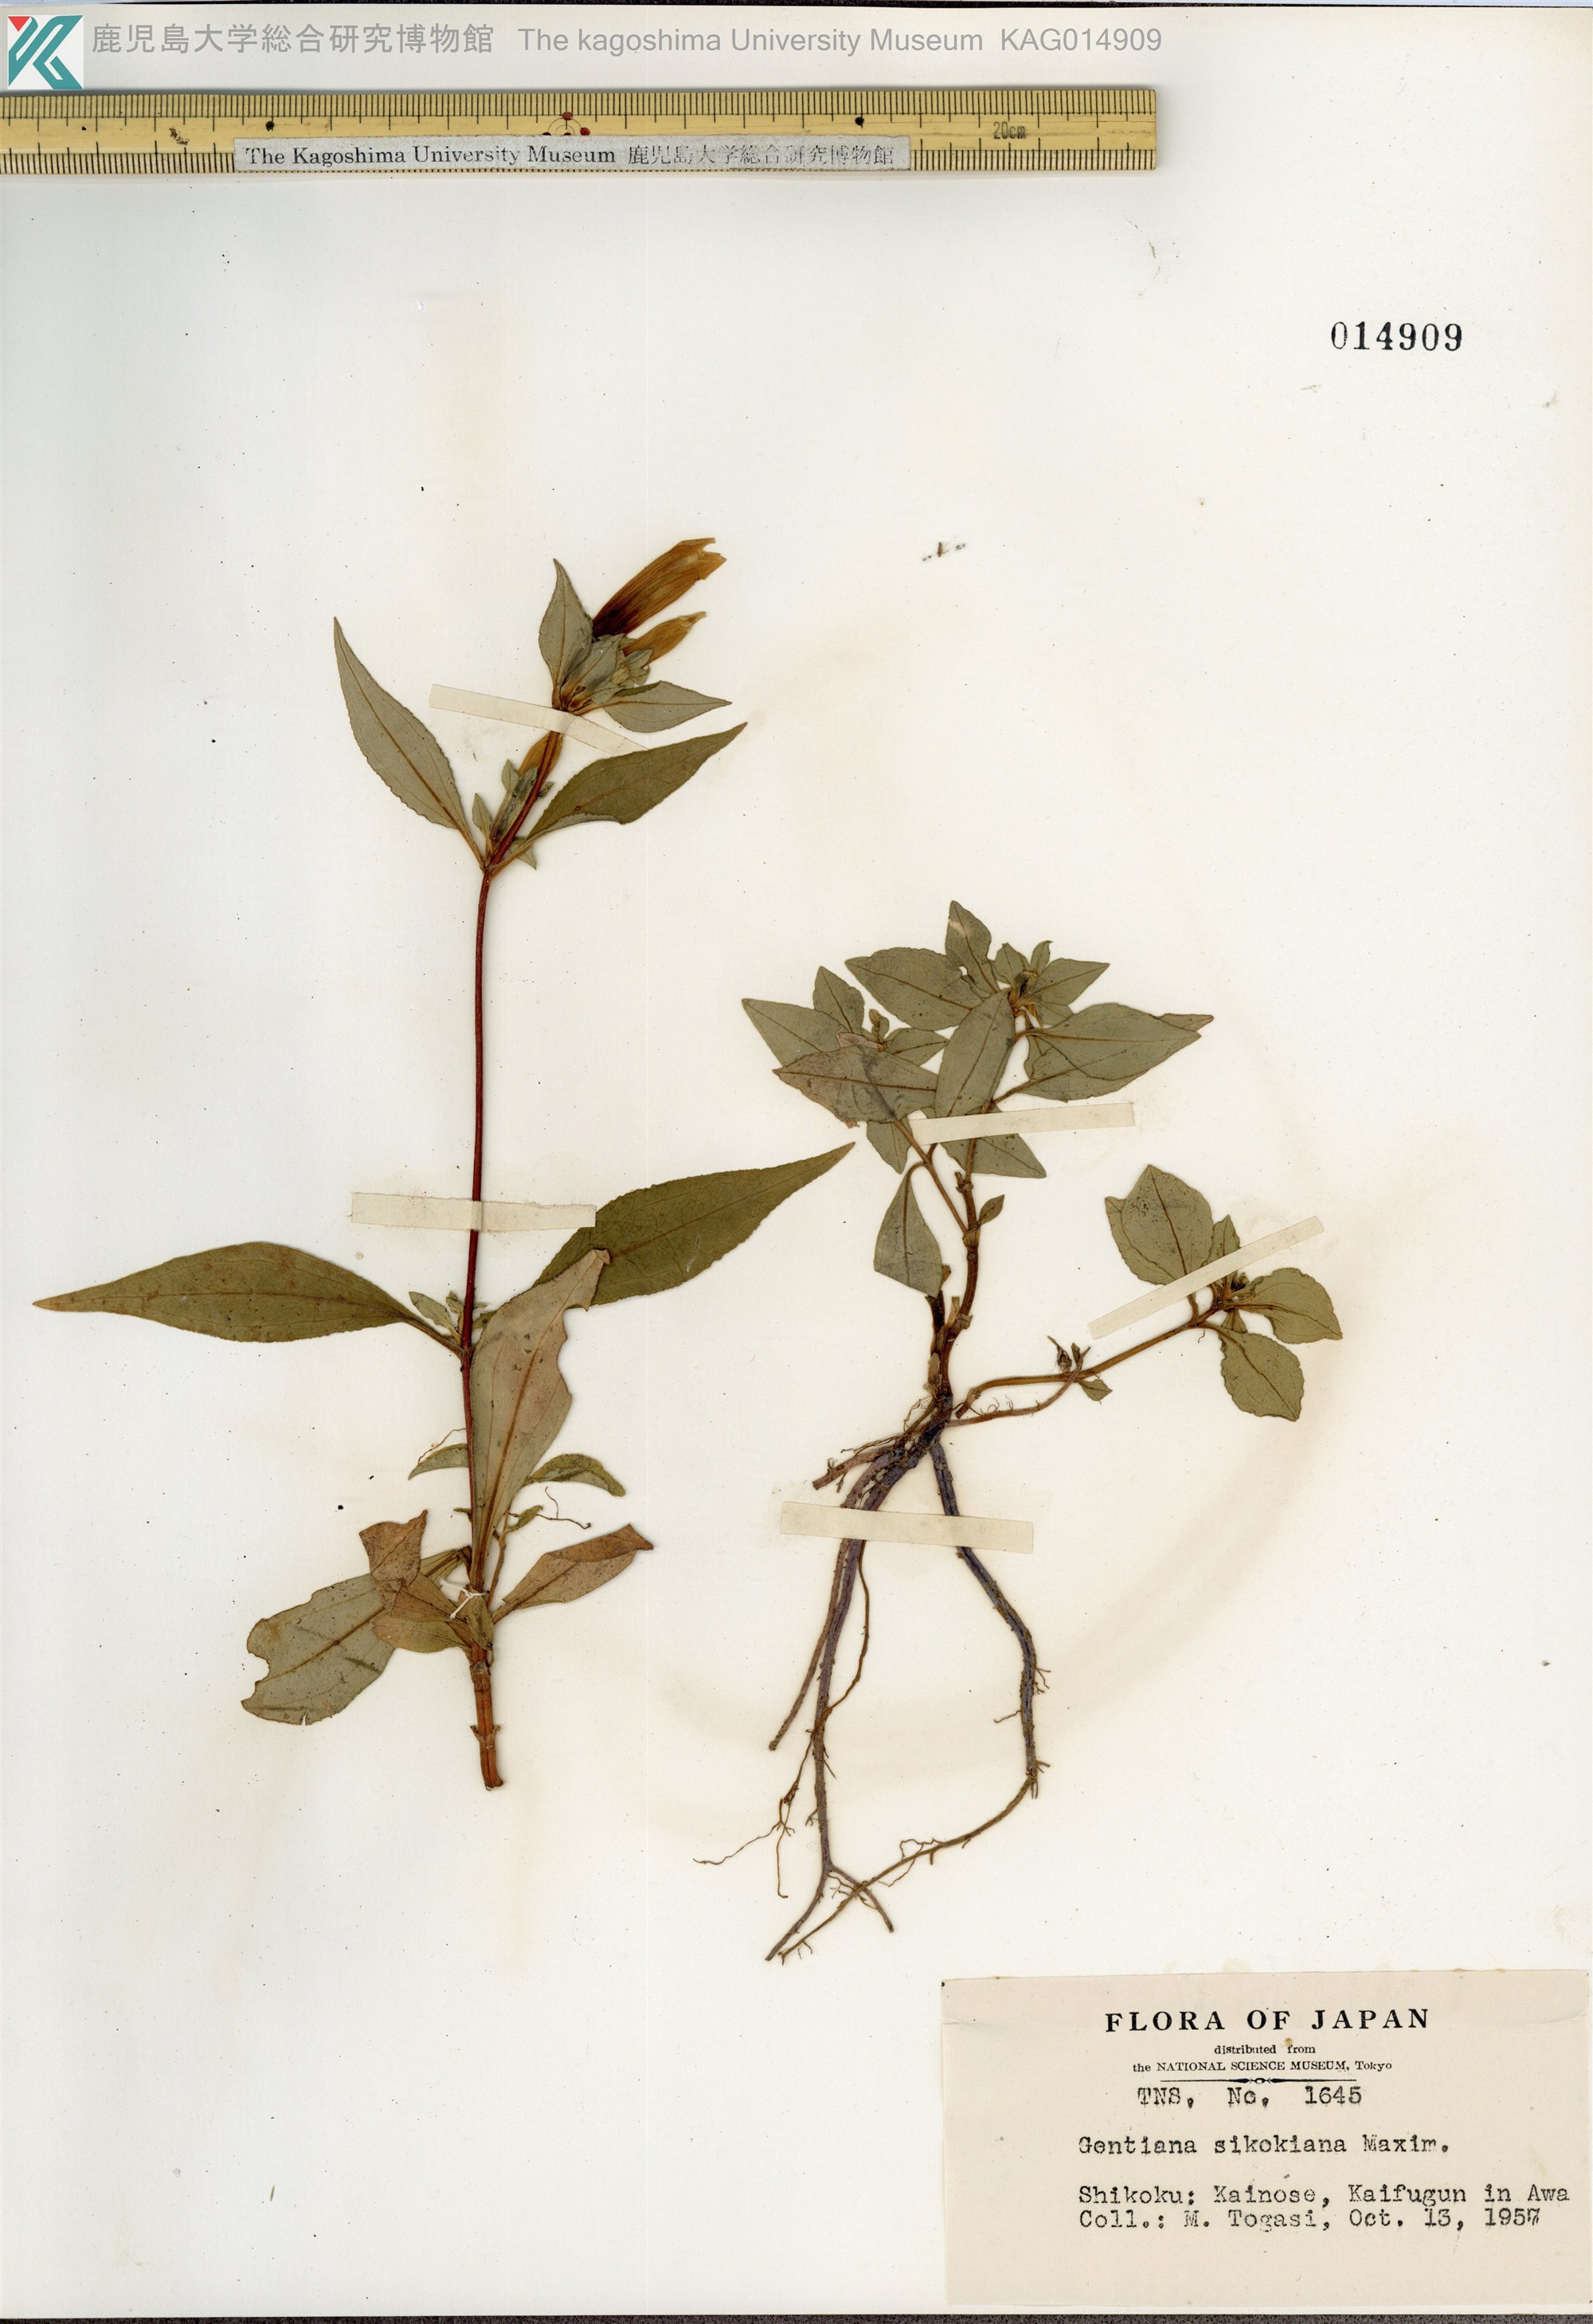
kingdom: Plantae
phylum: Tracheophyta
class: Magnoliopsida
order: Gentianales
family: Gentianaceae
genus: Gentiana
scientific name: Gentiana sikokiana
